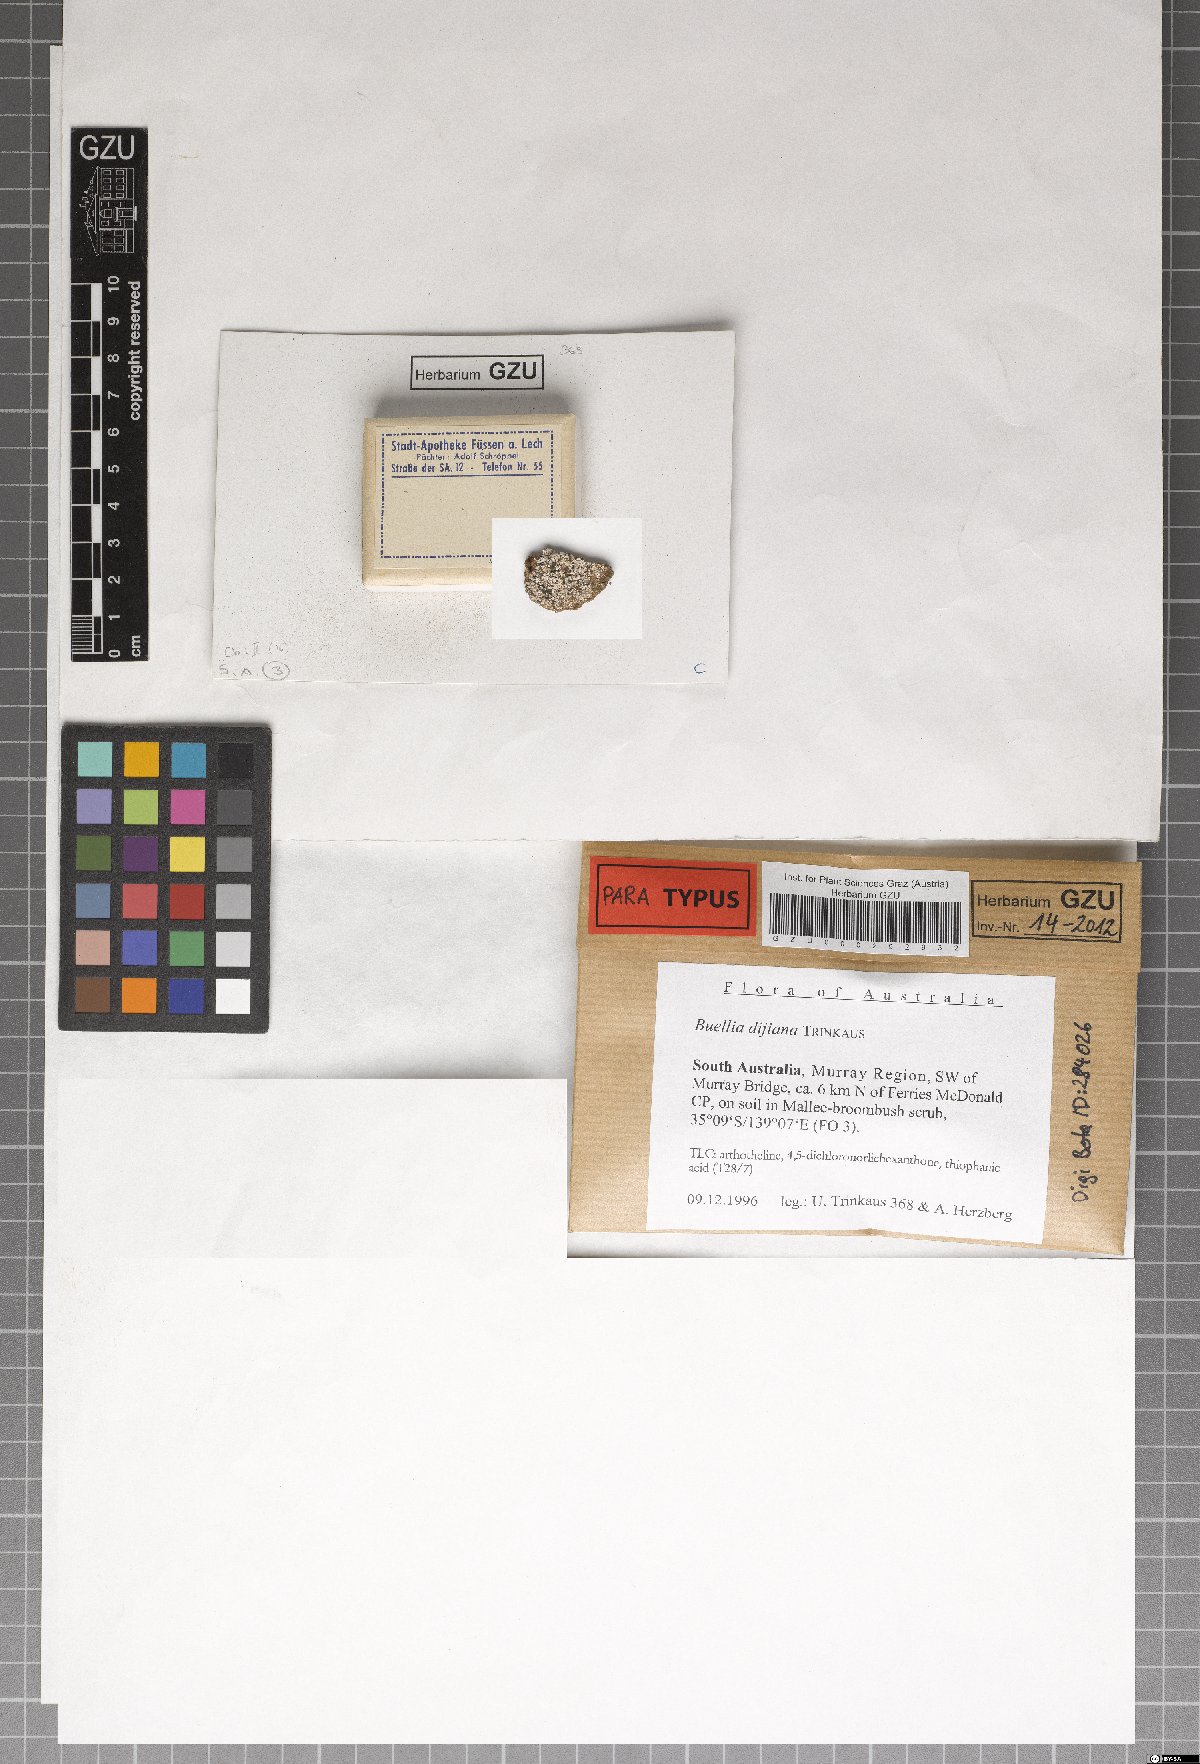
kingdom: Fungi
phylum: Ascomycota
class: Lecanoromycetes
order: Caliciales
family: Caliciaceae
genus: Buellia
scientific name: Buellia dayboroana
